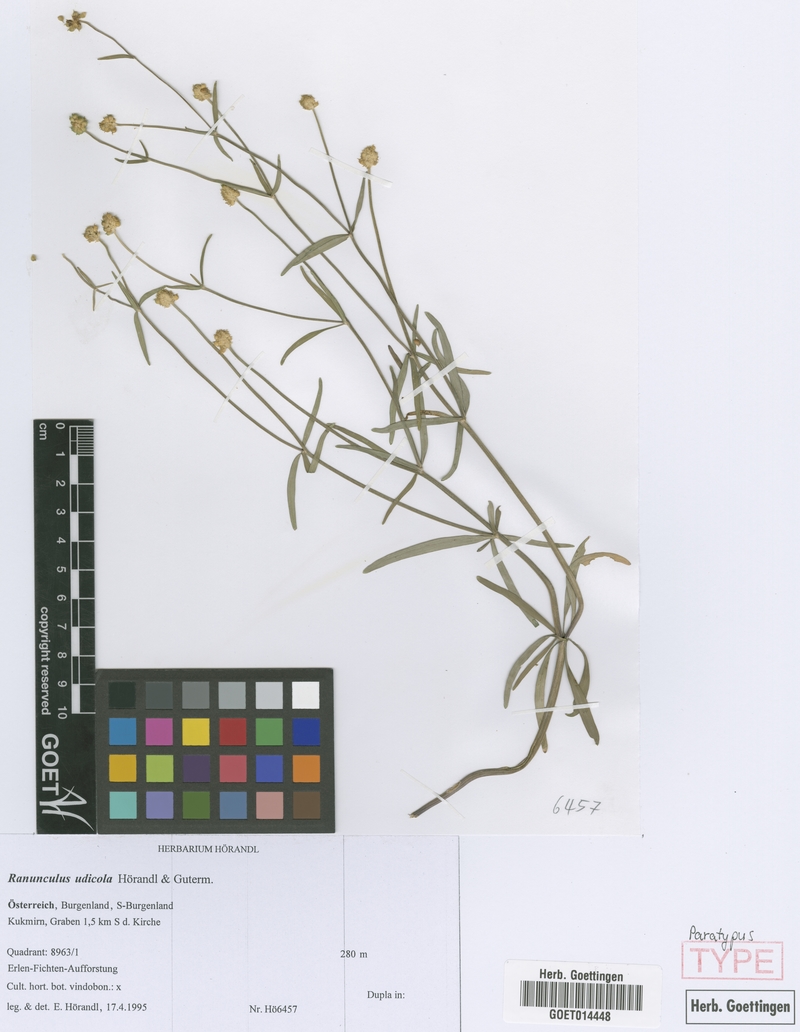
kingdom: Plantae
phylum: Tracheophyta
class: Magnoliopsida
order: Ranunculales
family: Ranunculaceae
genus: Ranunculus
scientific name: Ranunculus udicola
